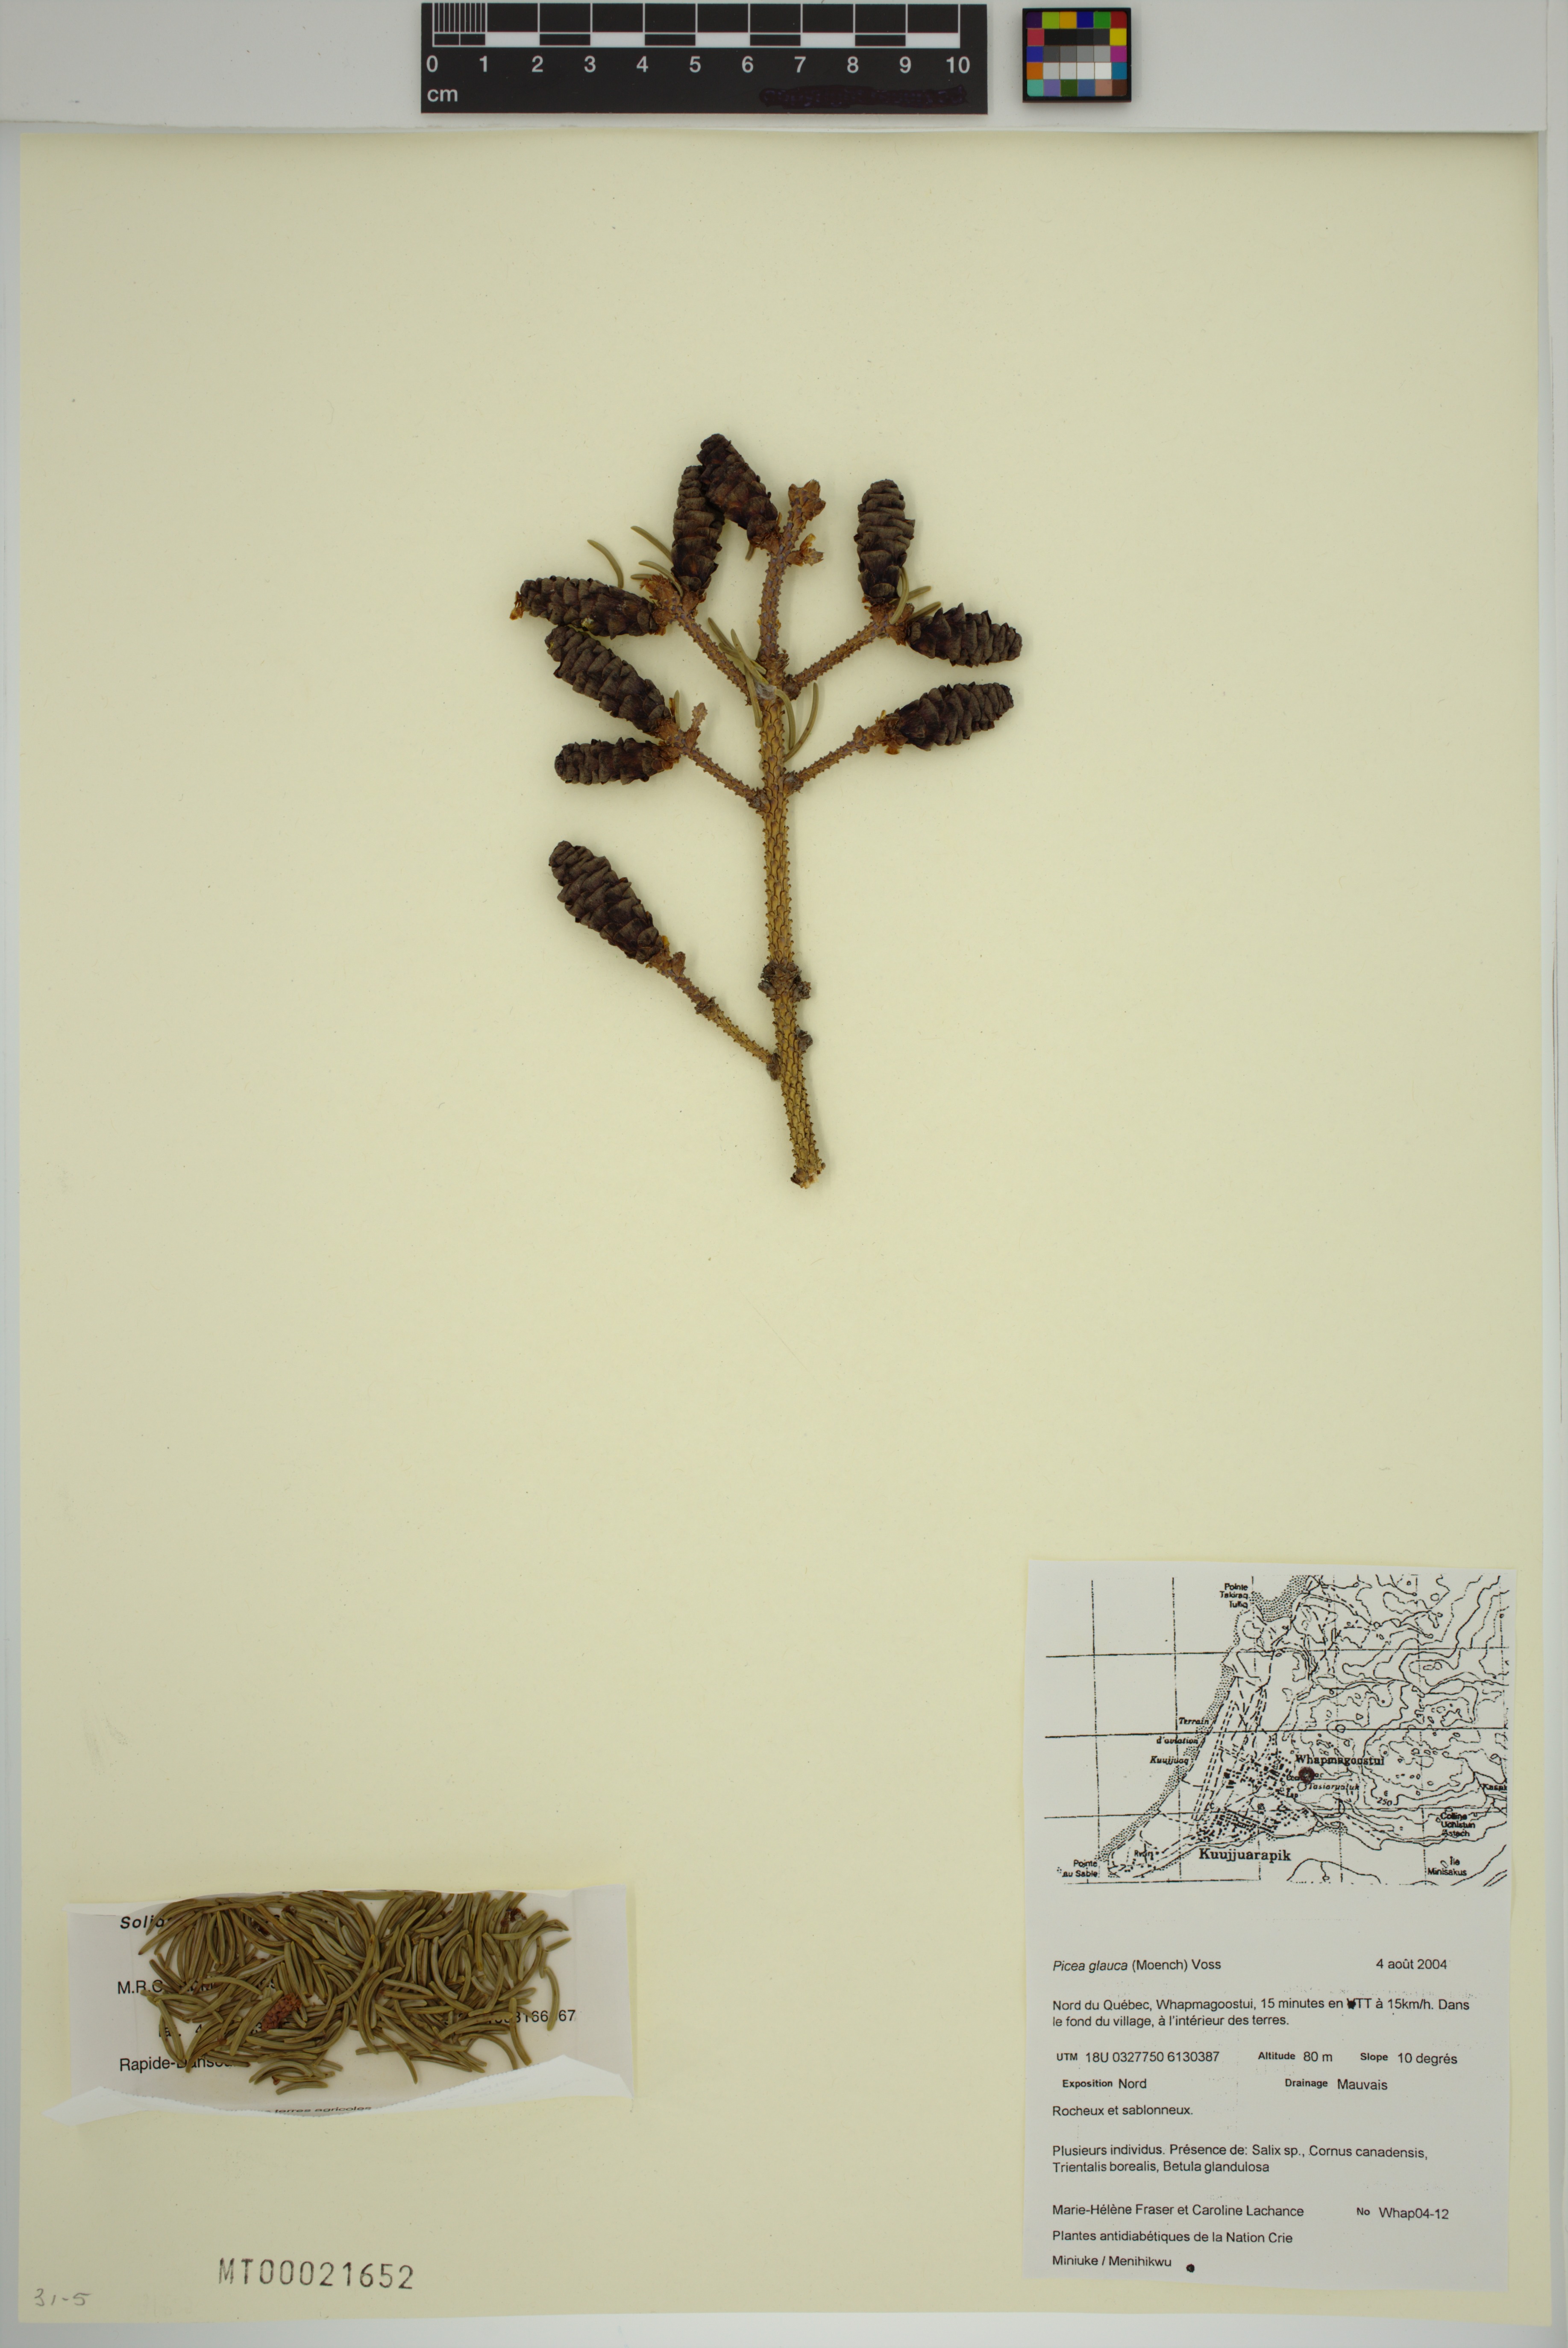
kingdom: Plantae
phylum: Tracheophyta
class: Pinopsida
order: Pinales
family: Pinaceae
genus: Picea
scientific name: Picea glauca
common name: White spruce
